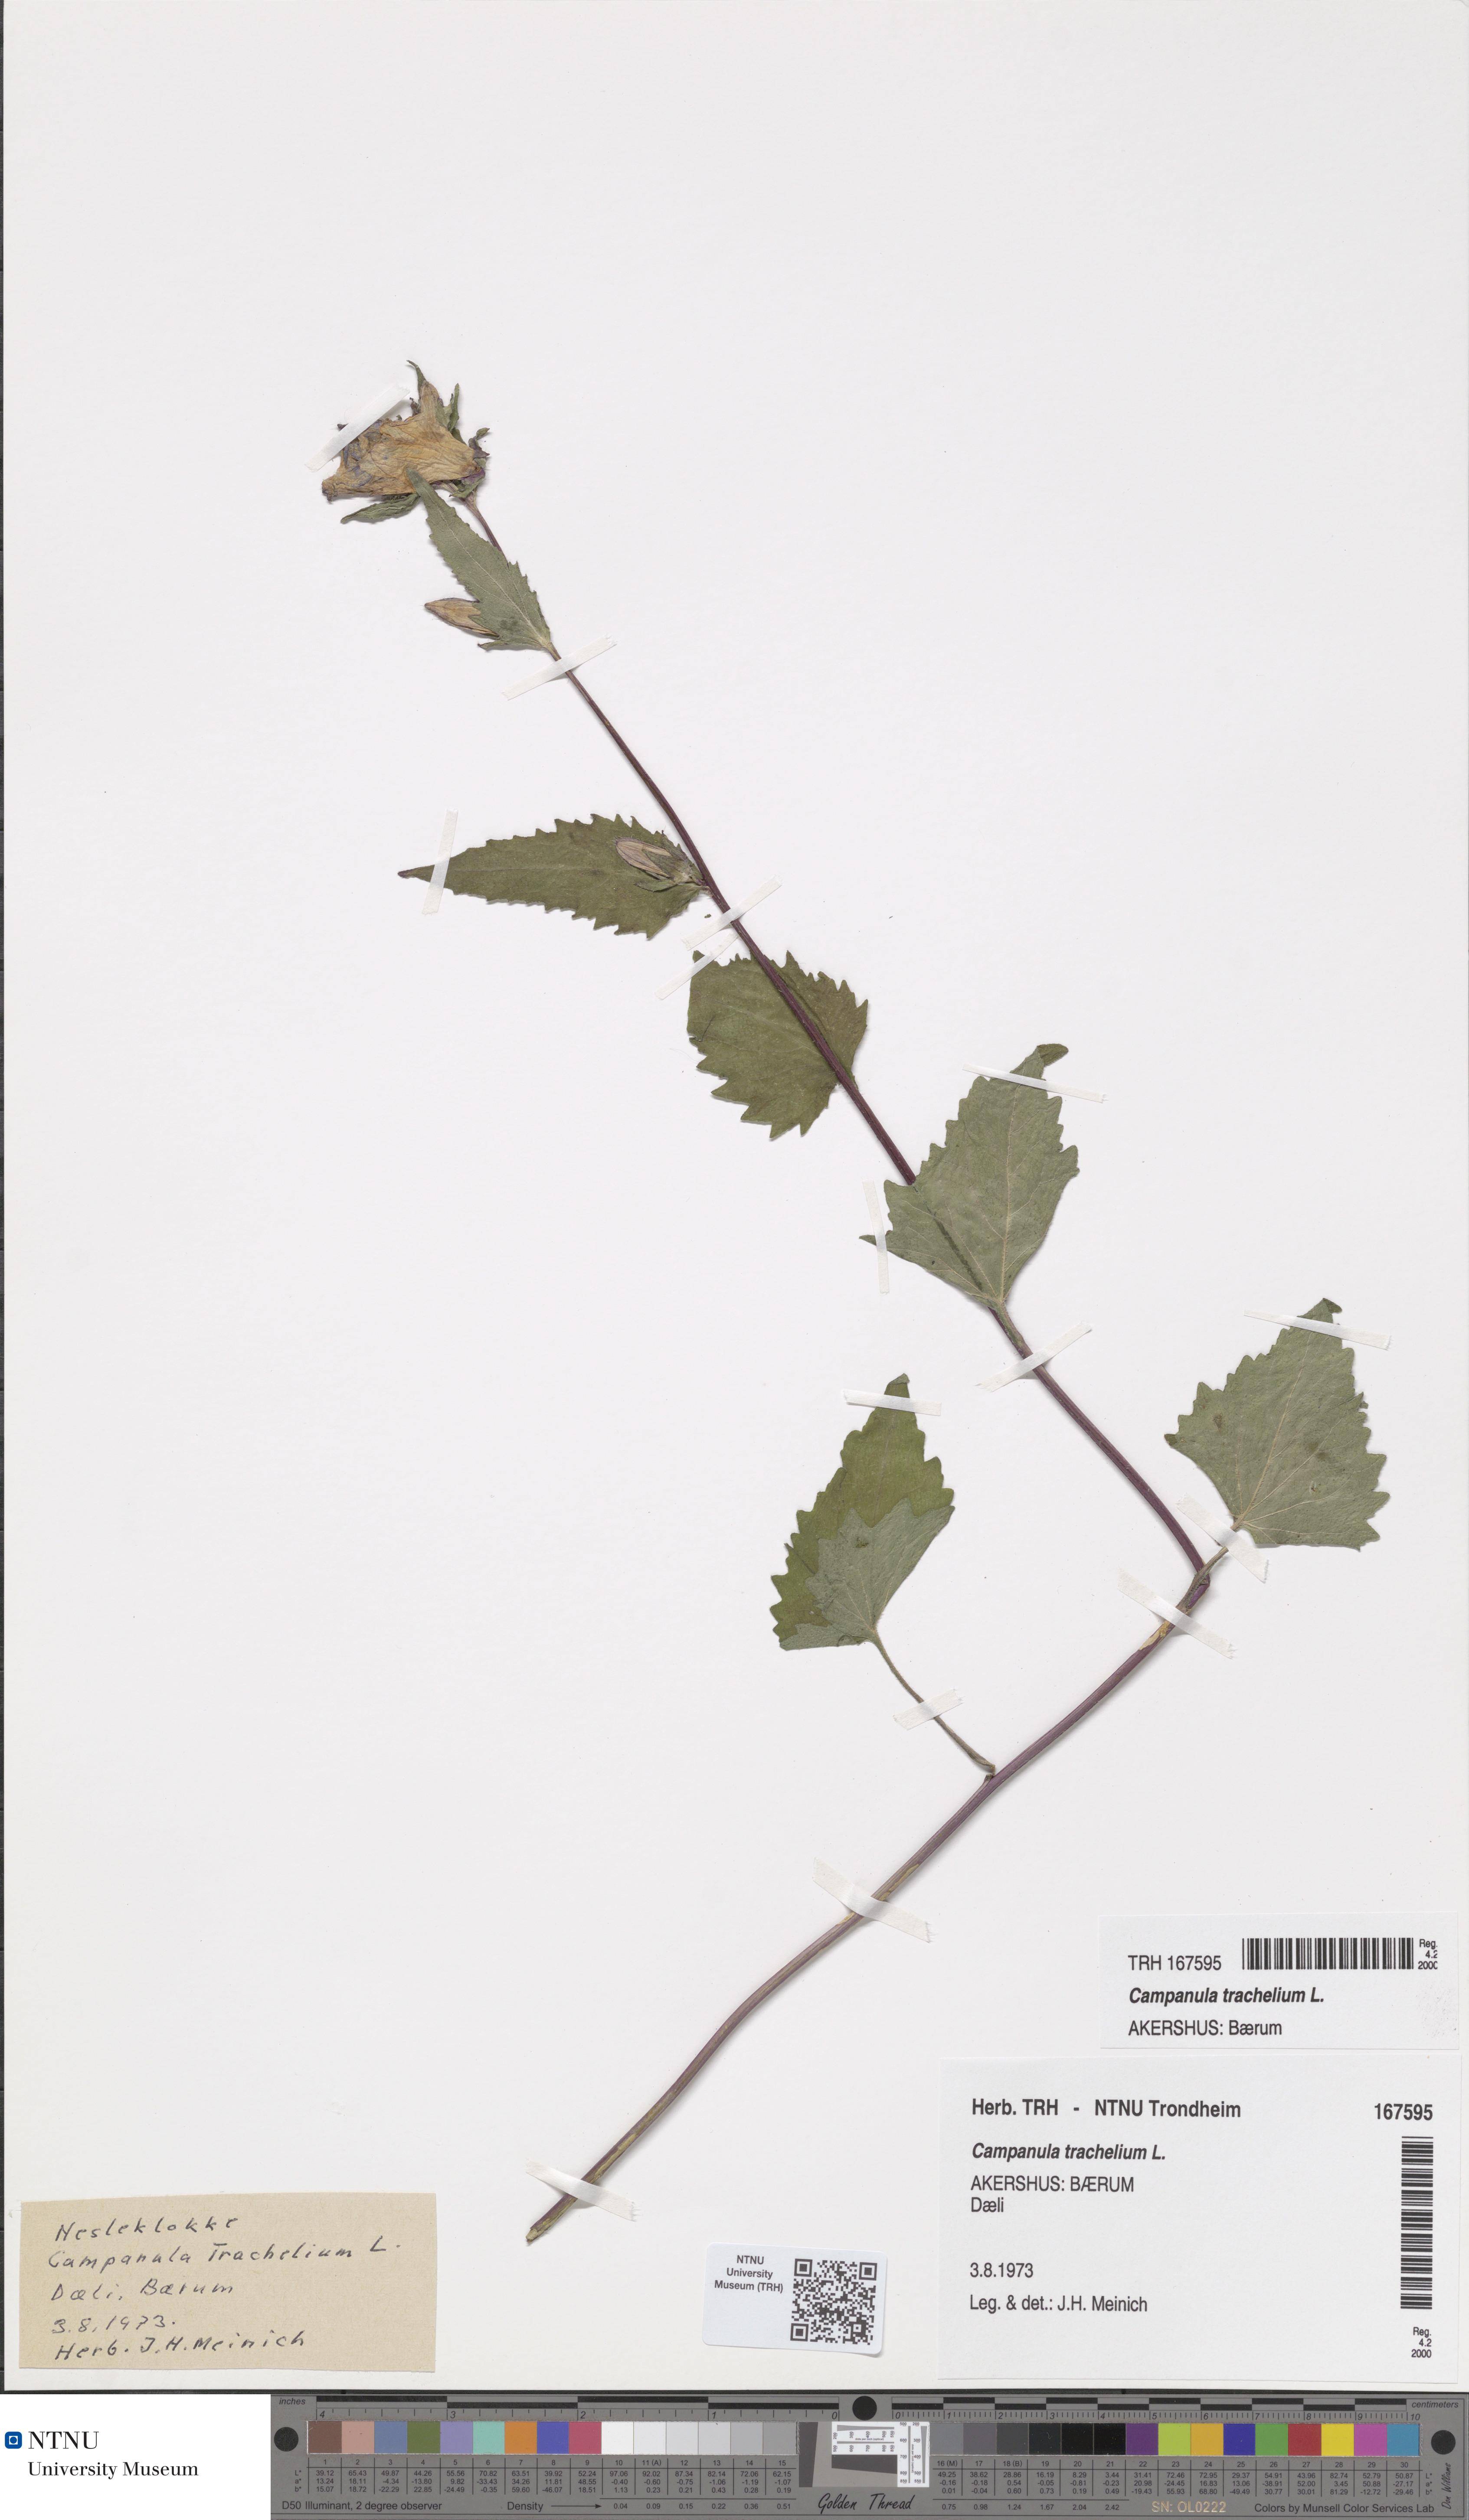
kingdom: Plantae
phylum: Tracheophyta
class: Magnoliopsida
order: Asterales
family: Campanulaceae
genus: Campanula
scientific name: Campanula trachelium
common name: Nettle-leaved bellflower
